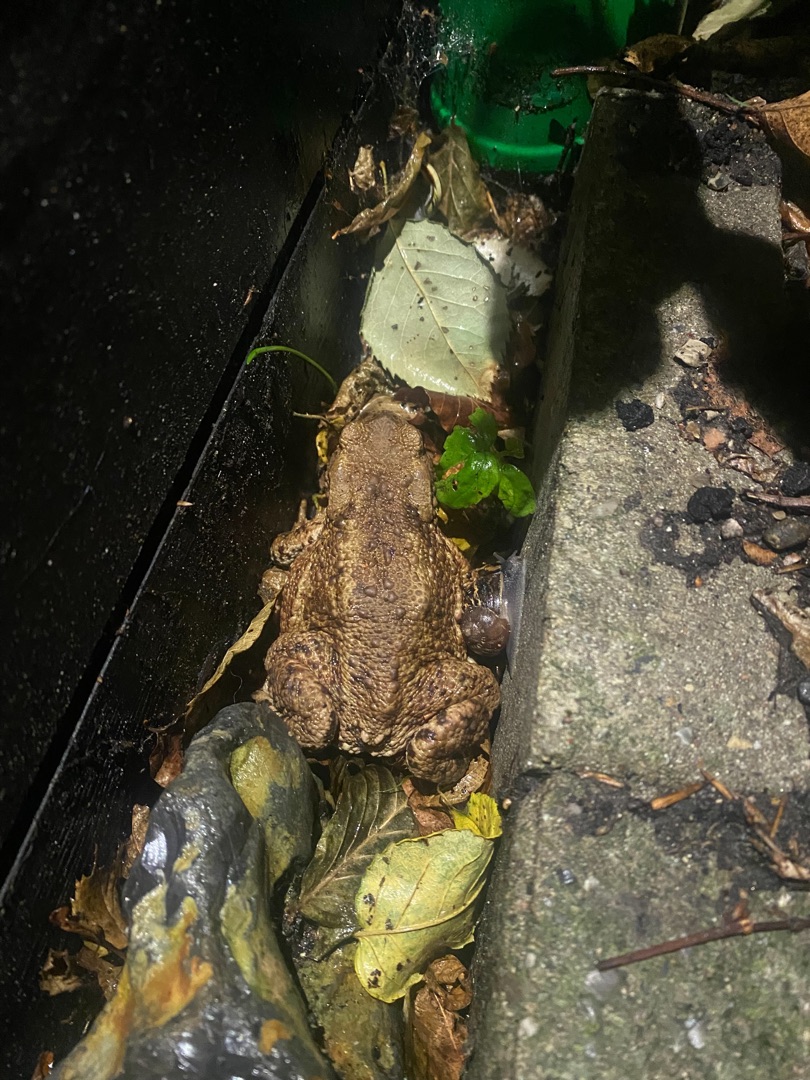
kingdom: Animalia
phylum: Chordata
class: Amphibia
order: Anura
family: Bufonidae
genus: Bufo
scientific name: Bufo bufo
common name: Skrubtudse
